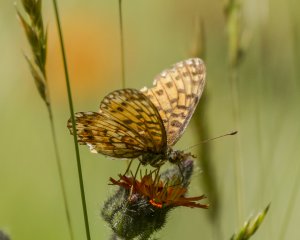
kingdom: Animalia
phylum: Arthropoda
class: Insecta
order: Lepidoptera
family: Nymphalidae
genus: Boloria
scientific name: Boloria selene
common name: Silver-bordered Fritillary
